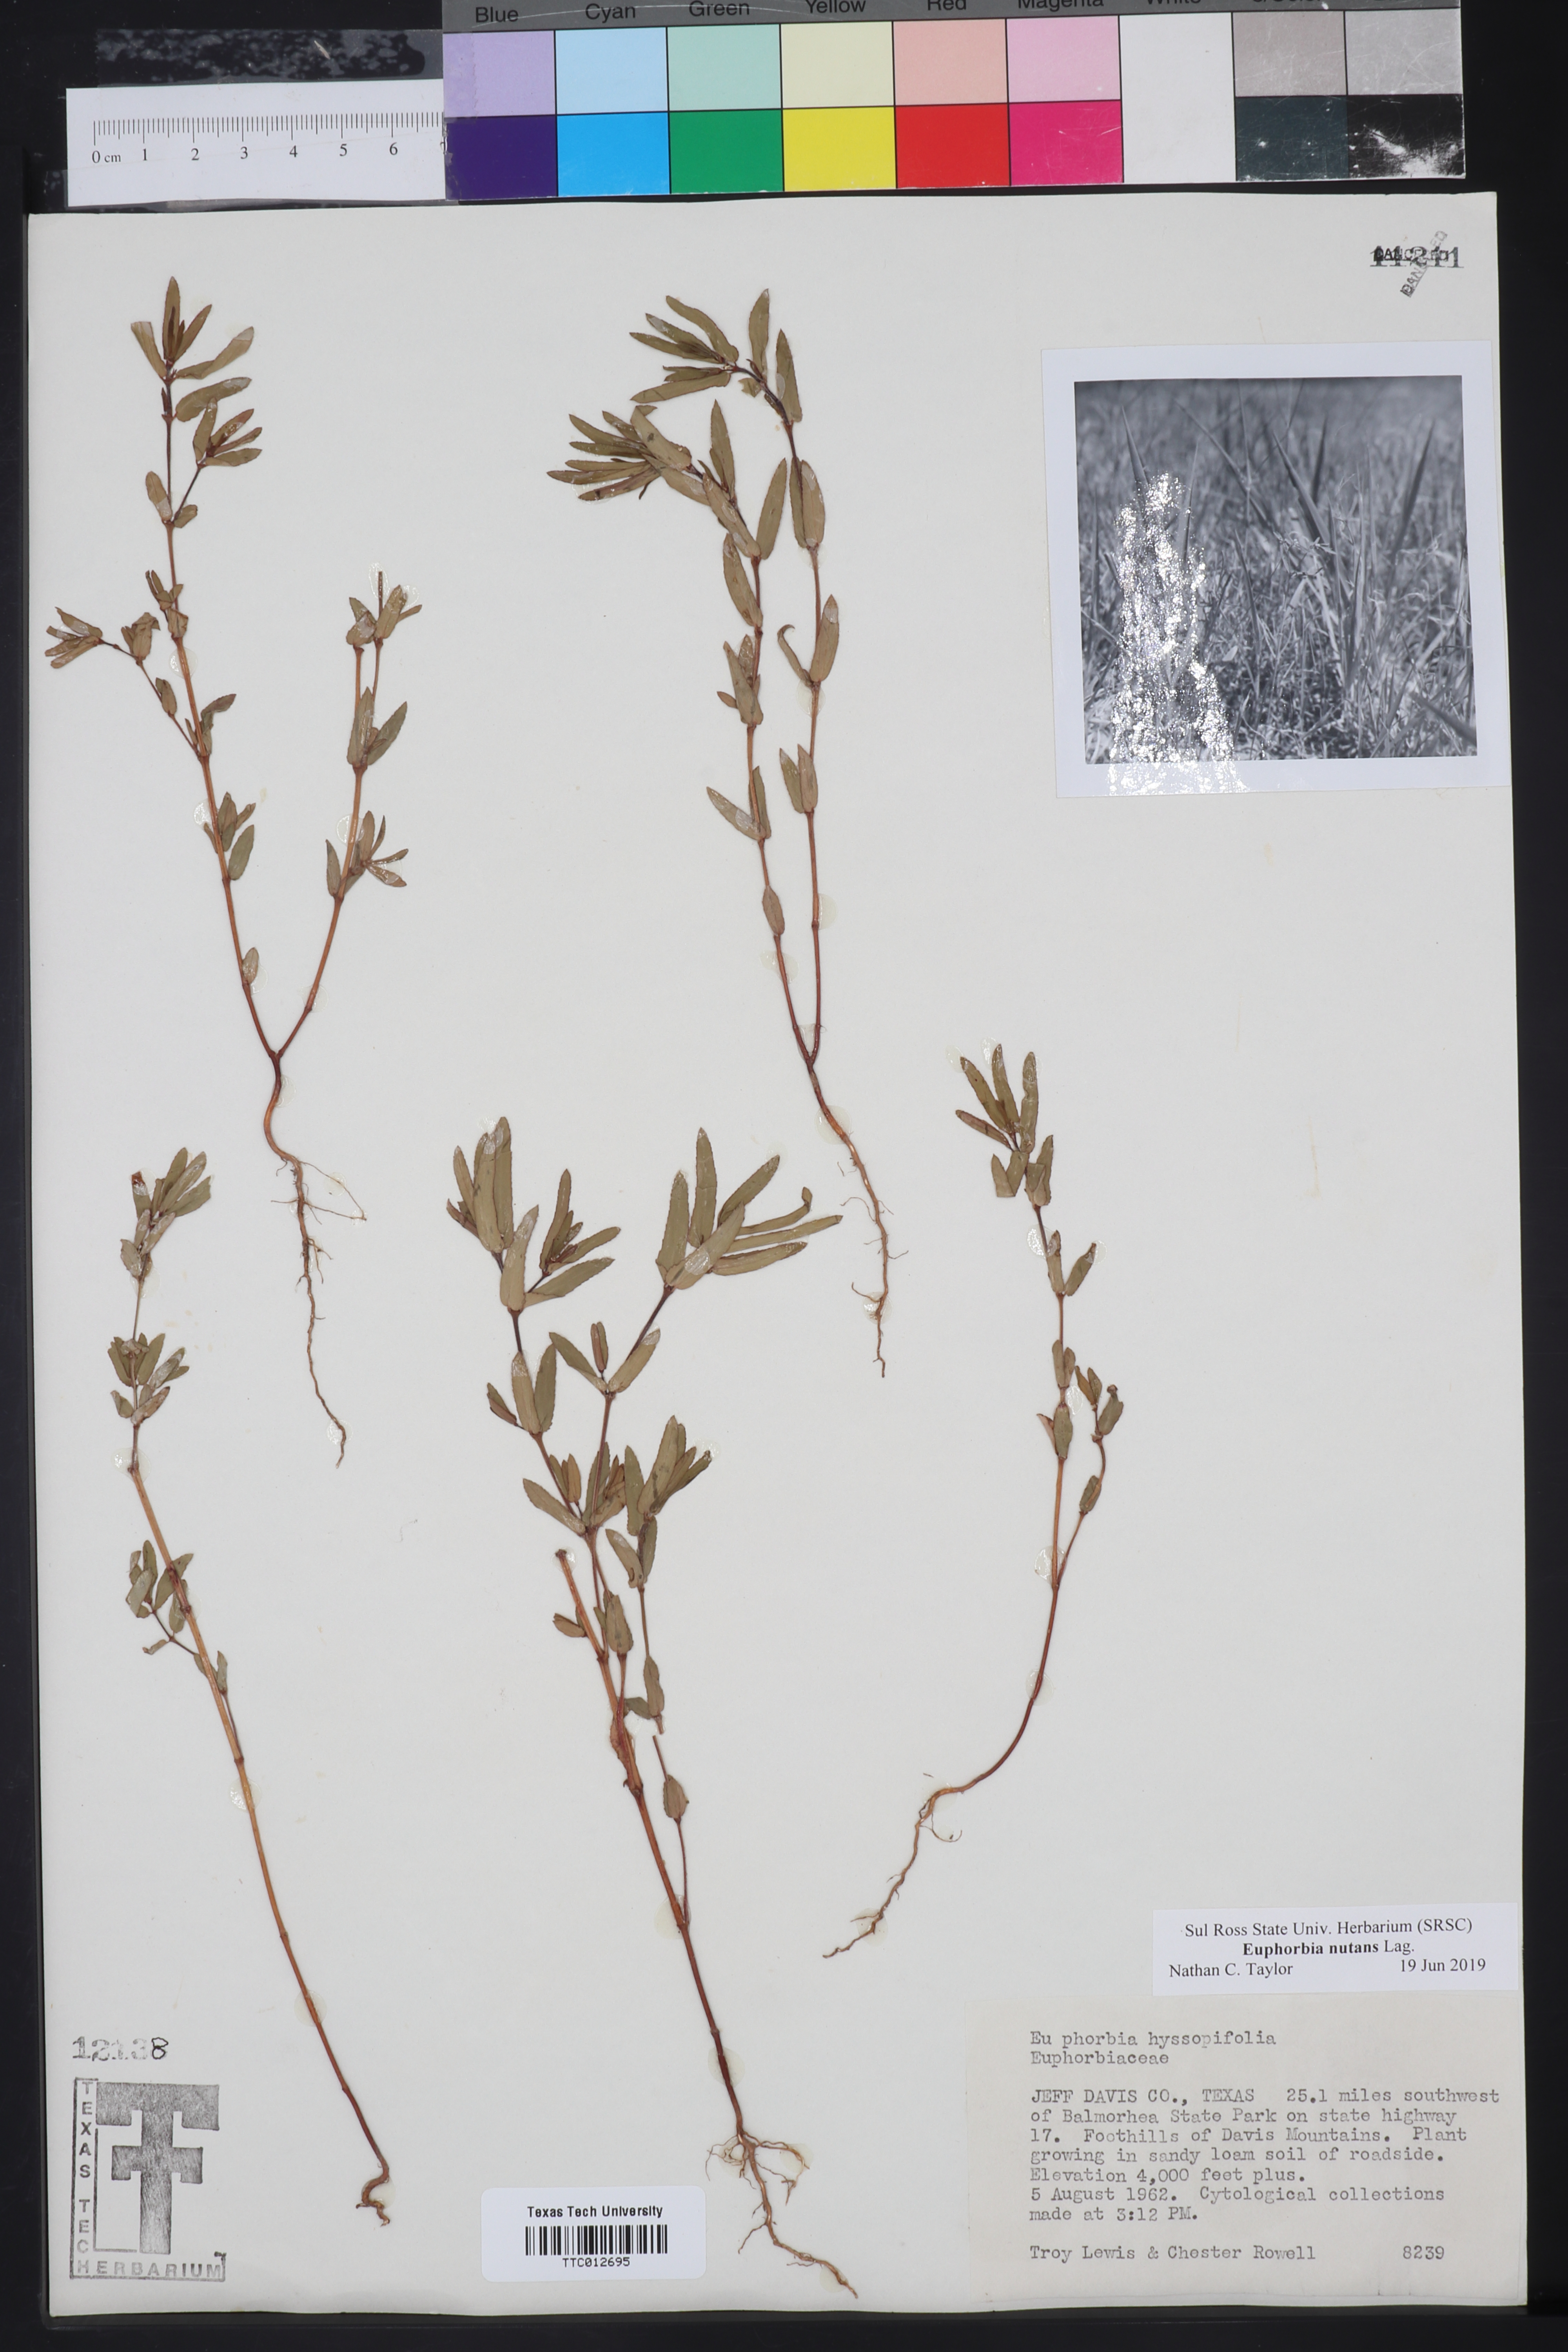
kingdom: Plantae
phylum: Tracheophyta
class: Magnoliopsida
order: Malpighiales
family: Euphorbiaceae
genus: Euphorbia
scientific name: Euphorbia nutans
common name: Eyebane
